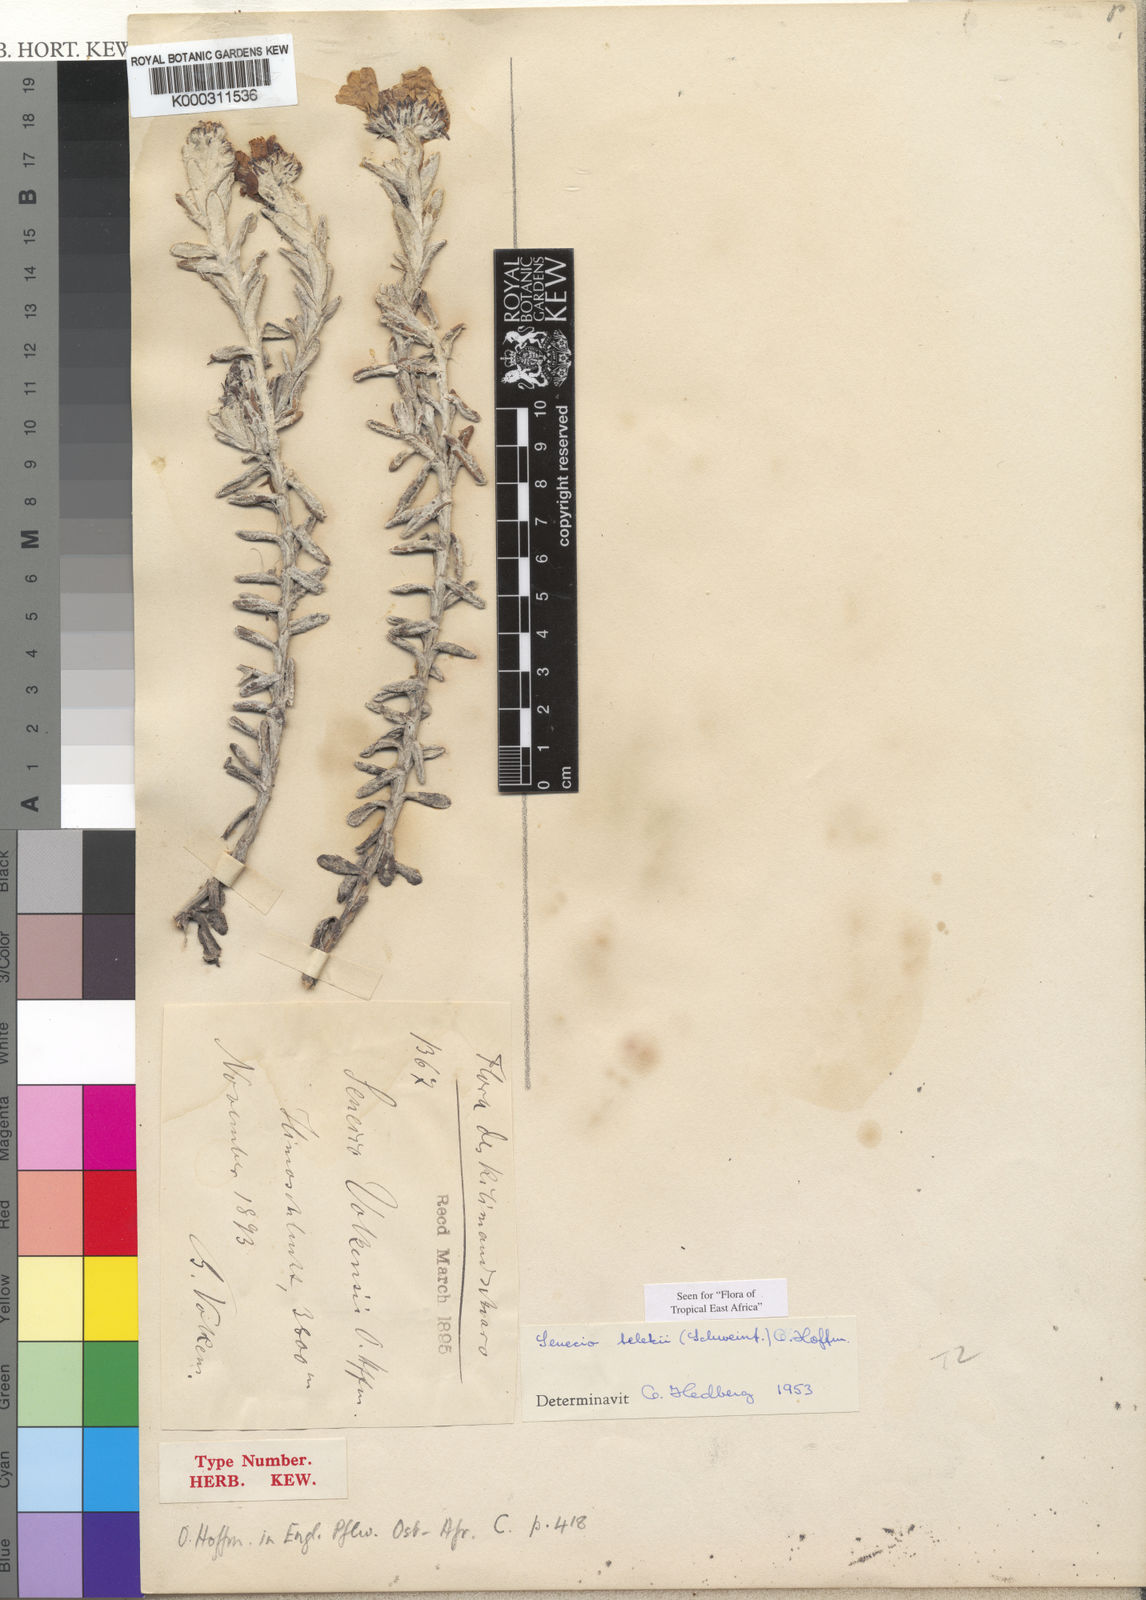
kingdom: Plantae
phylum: Tracheophyta
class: Magnoliopsida
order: Asterales
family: Asteraceae
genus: Senecio
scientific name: Senecio telekii
